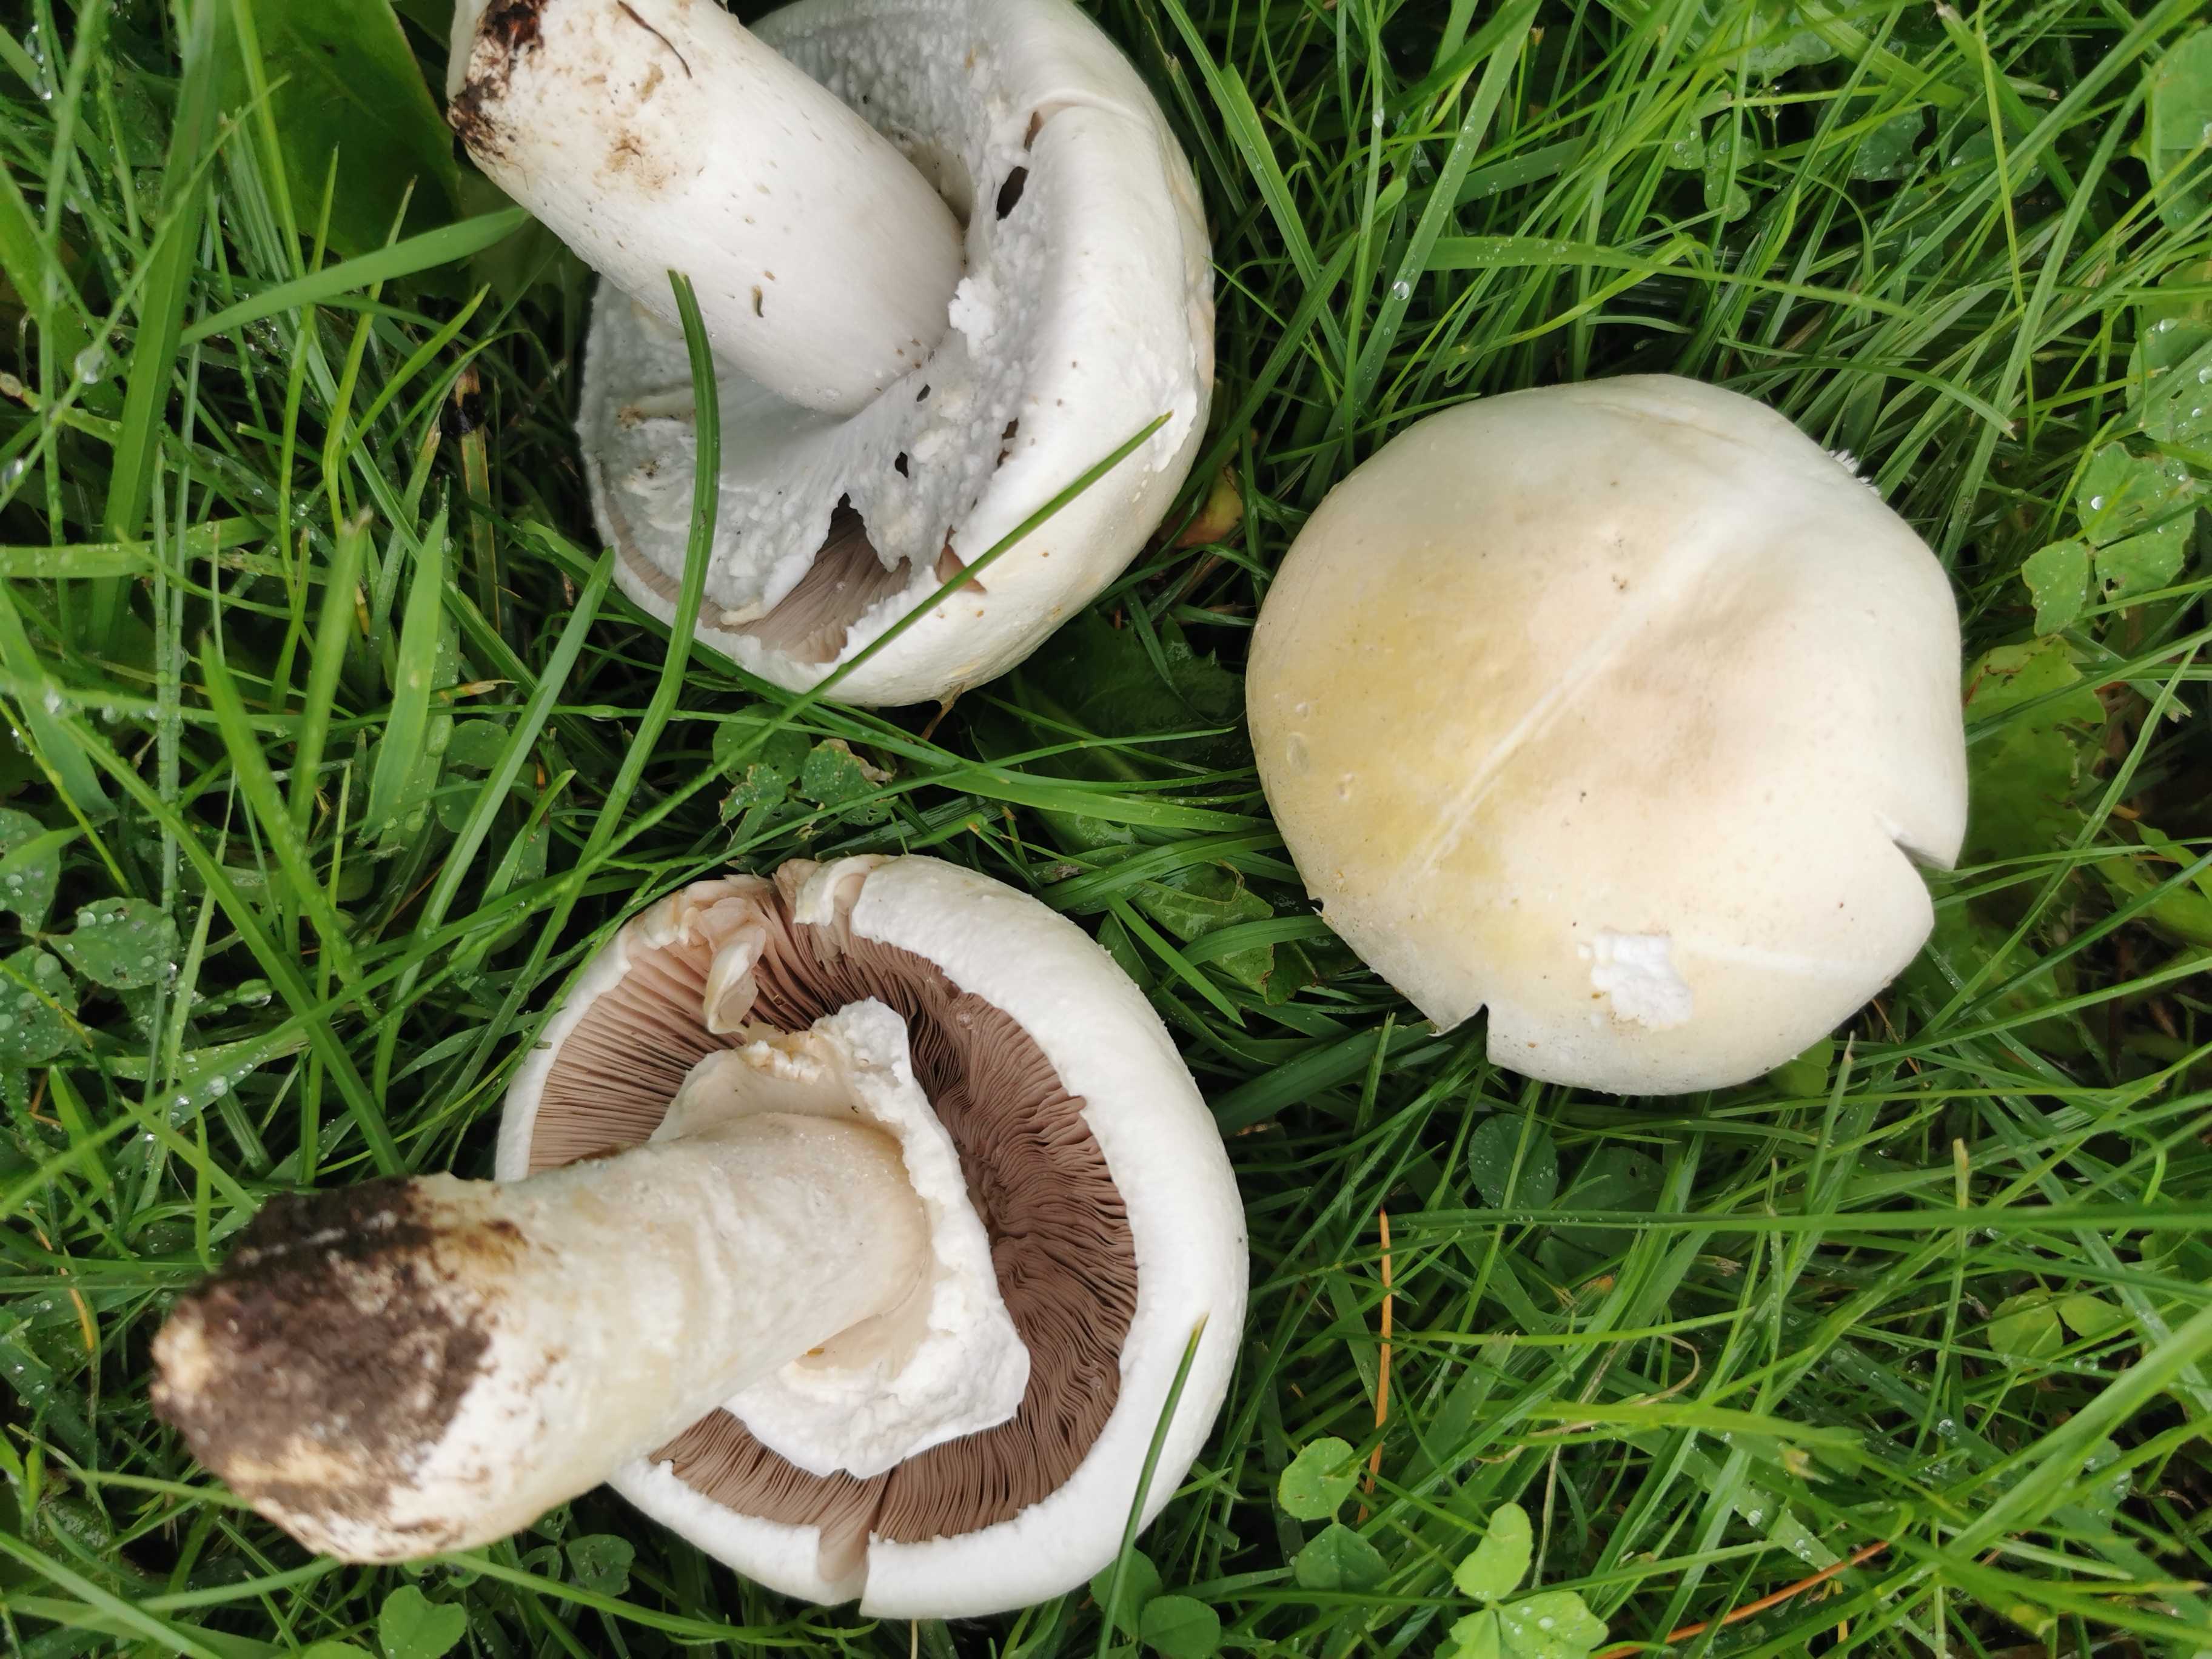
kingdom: Fungi
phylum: Basidiomycota
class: Agaricomycetes
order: Agaricales
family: Agaricaceae
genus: Agaricus
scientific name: Agaricus arvensis
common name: ager-champignon
